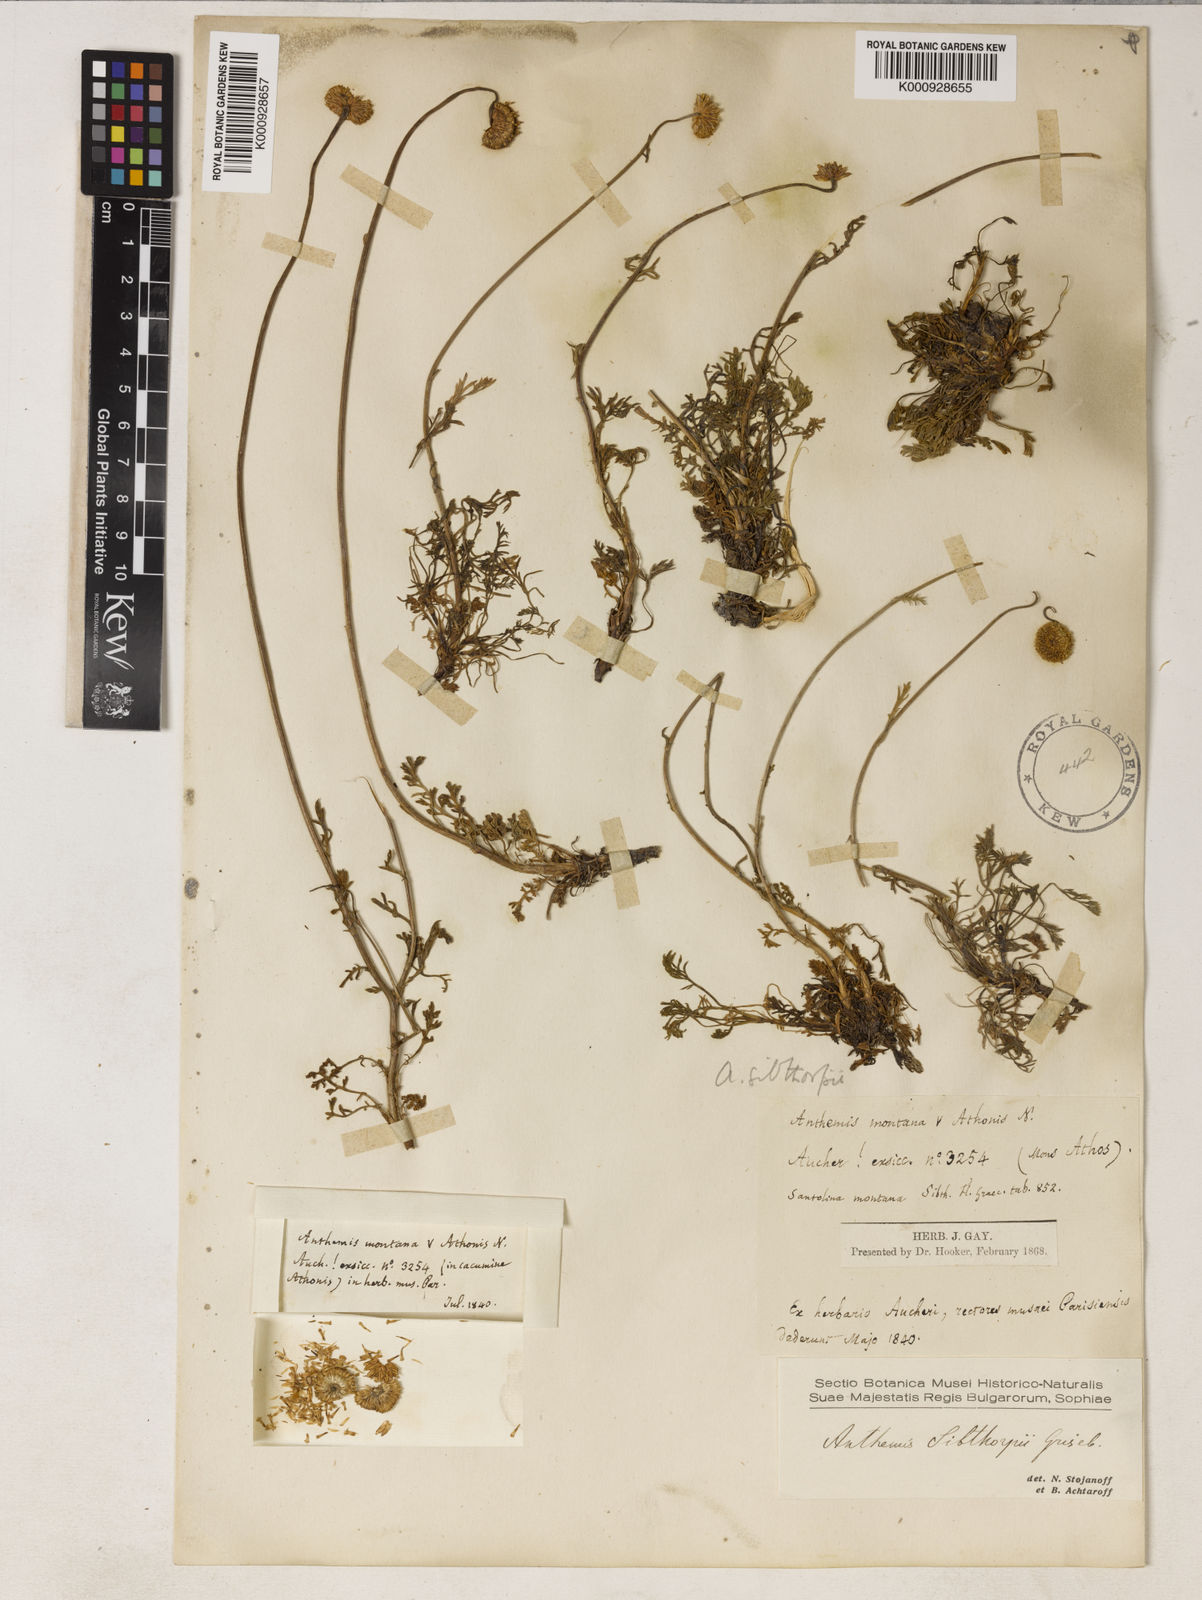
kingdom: Plantae
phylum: Tracheophyta
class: Magnoliopsida
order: Asterales
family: Asteraceae
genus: Anthemis
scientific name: Anthemis sibthorpii
